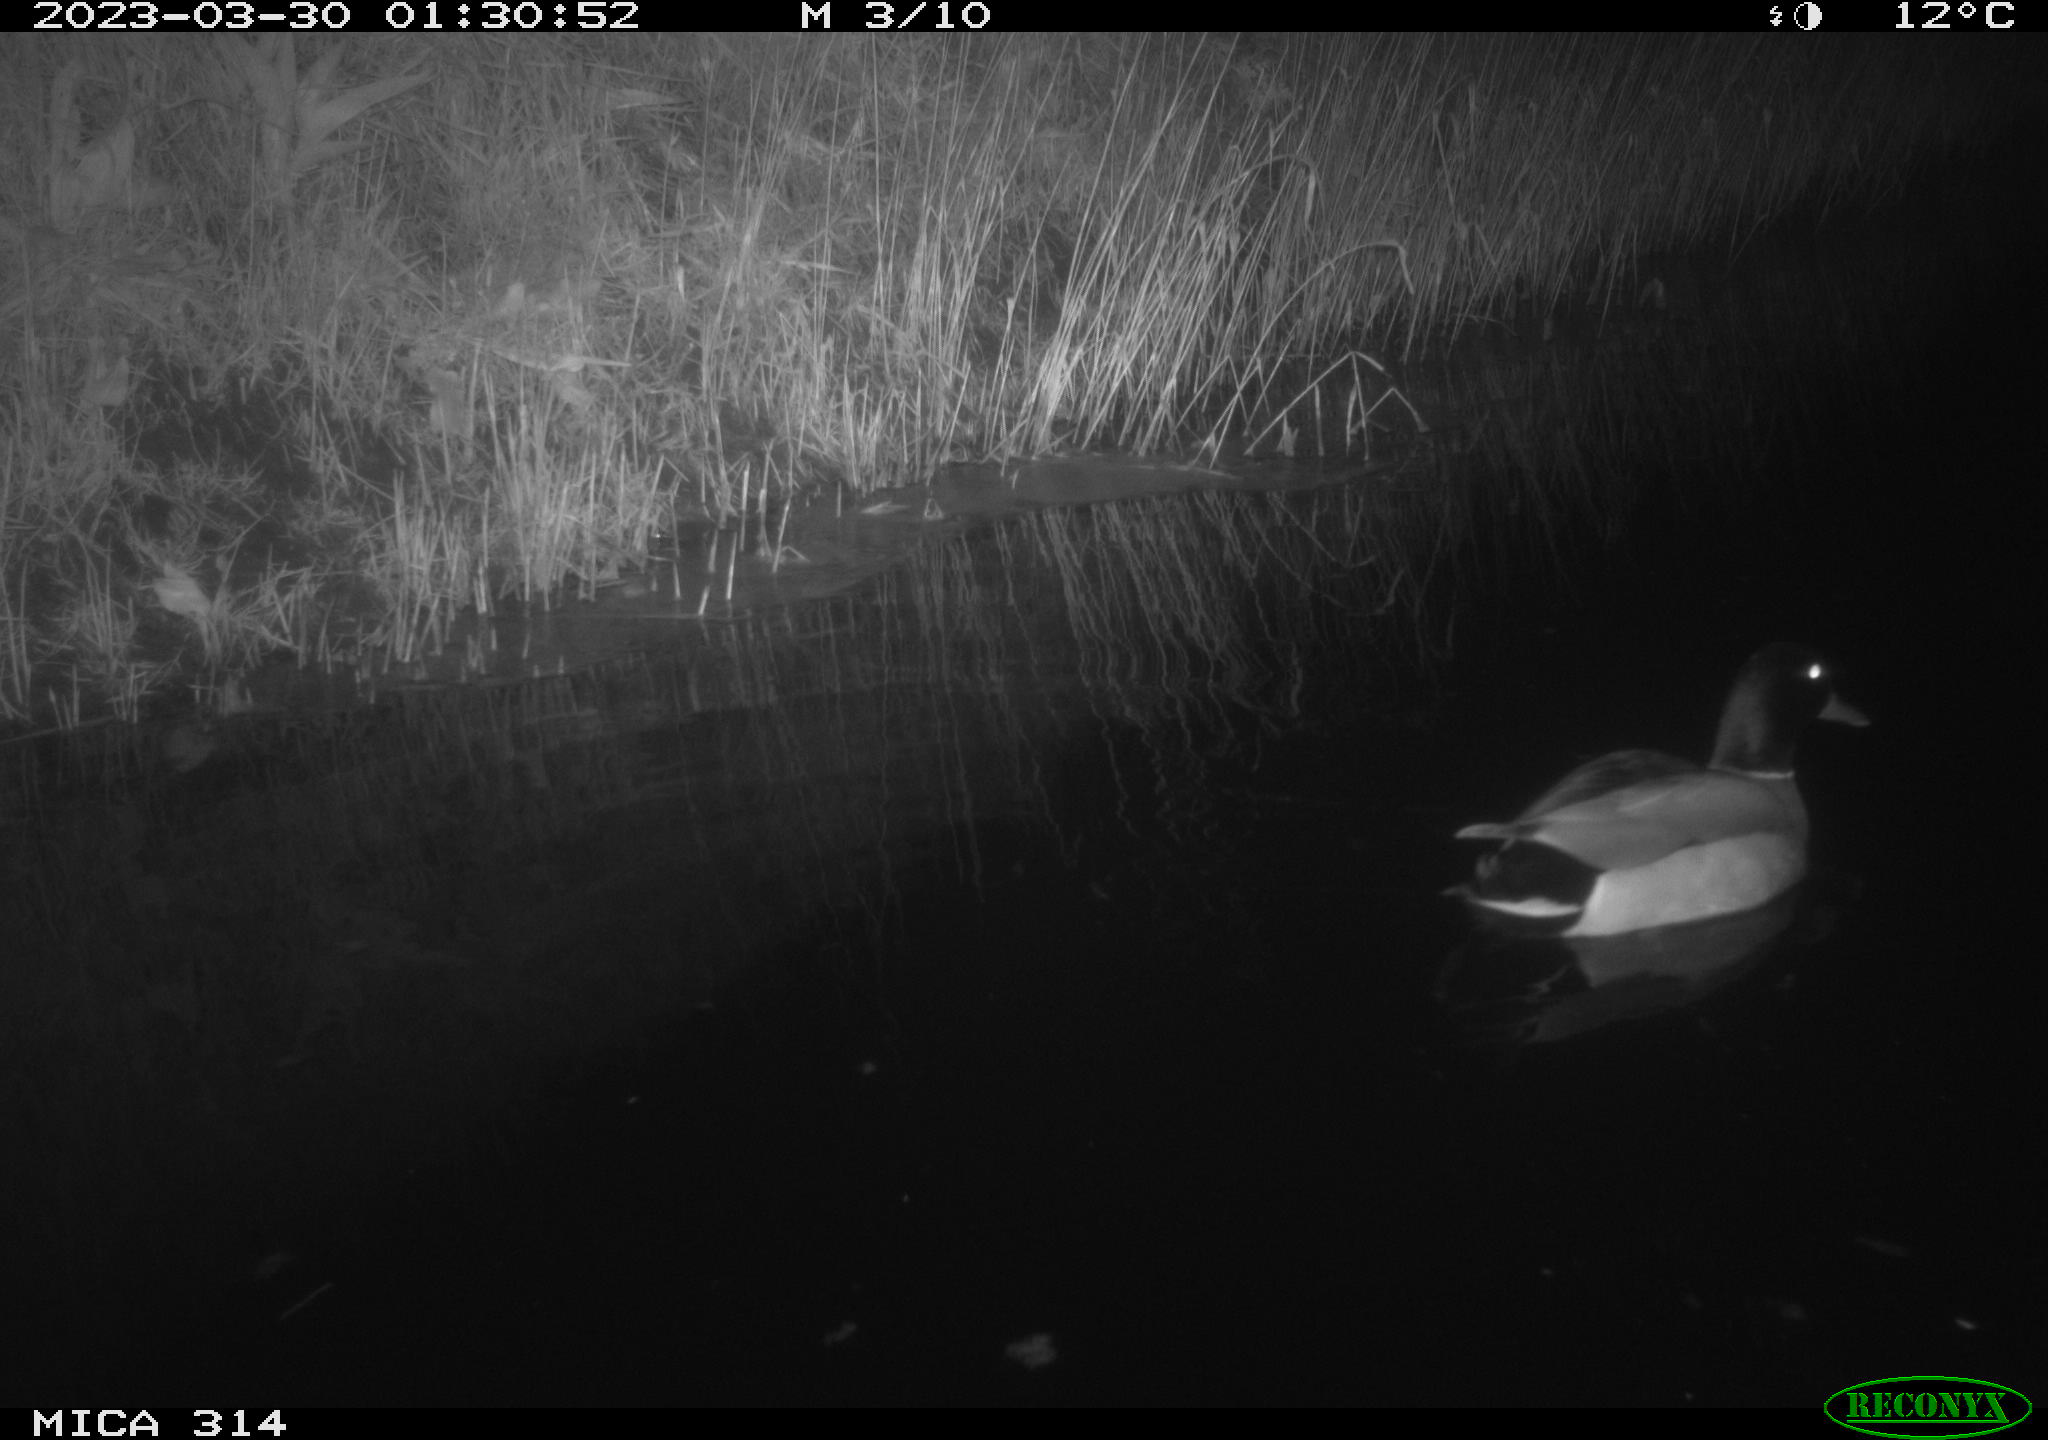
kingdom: Animalia
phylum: Chordata
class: Aves
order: Anseriformes
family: Anatidae
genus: Anas
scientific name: Anas
